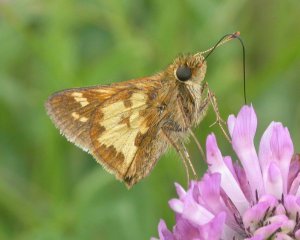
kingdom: Animalia
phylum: Arthropoda
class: Insecta
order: Lepidoptera
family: Hesperiidae
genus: Polites
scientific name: Polites coras
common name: Peck's Skipper
